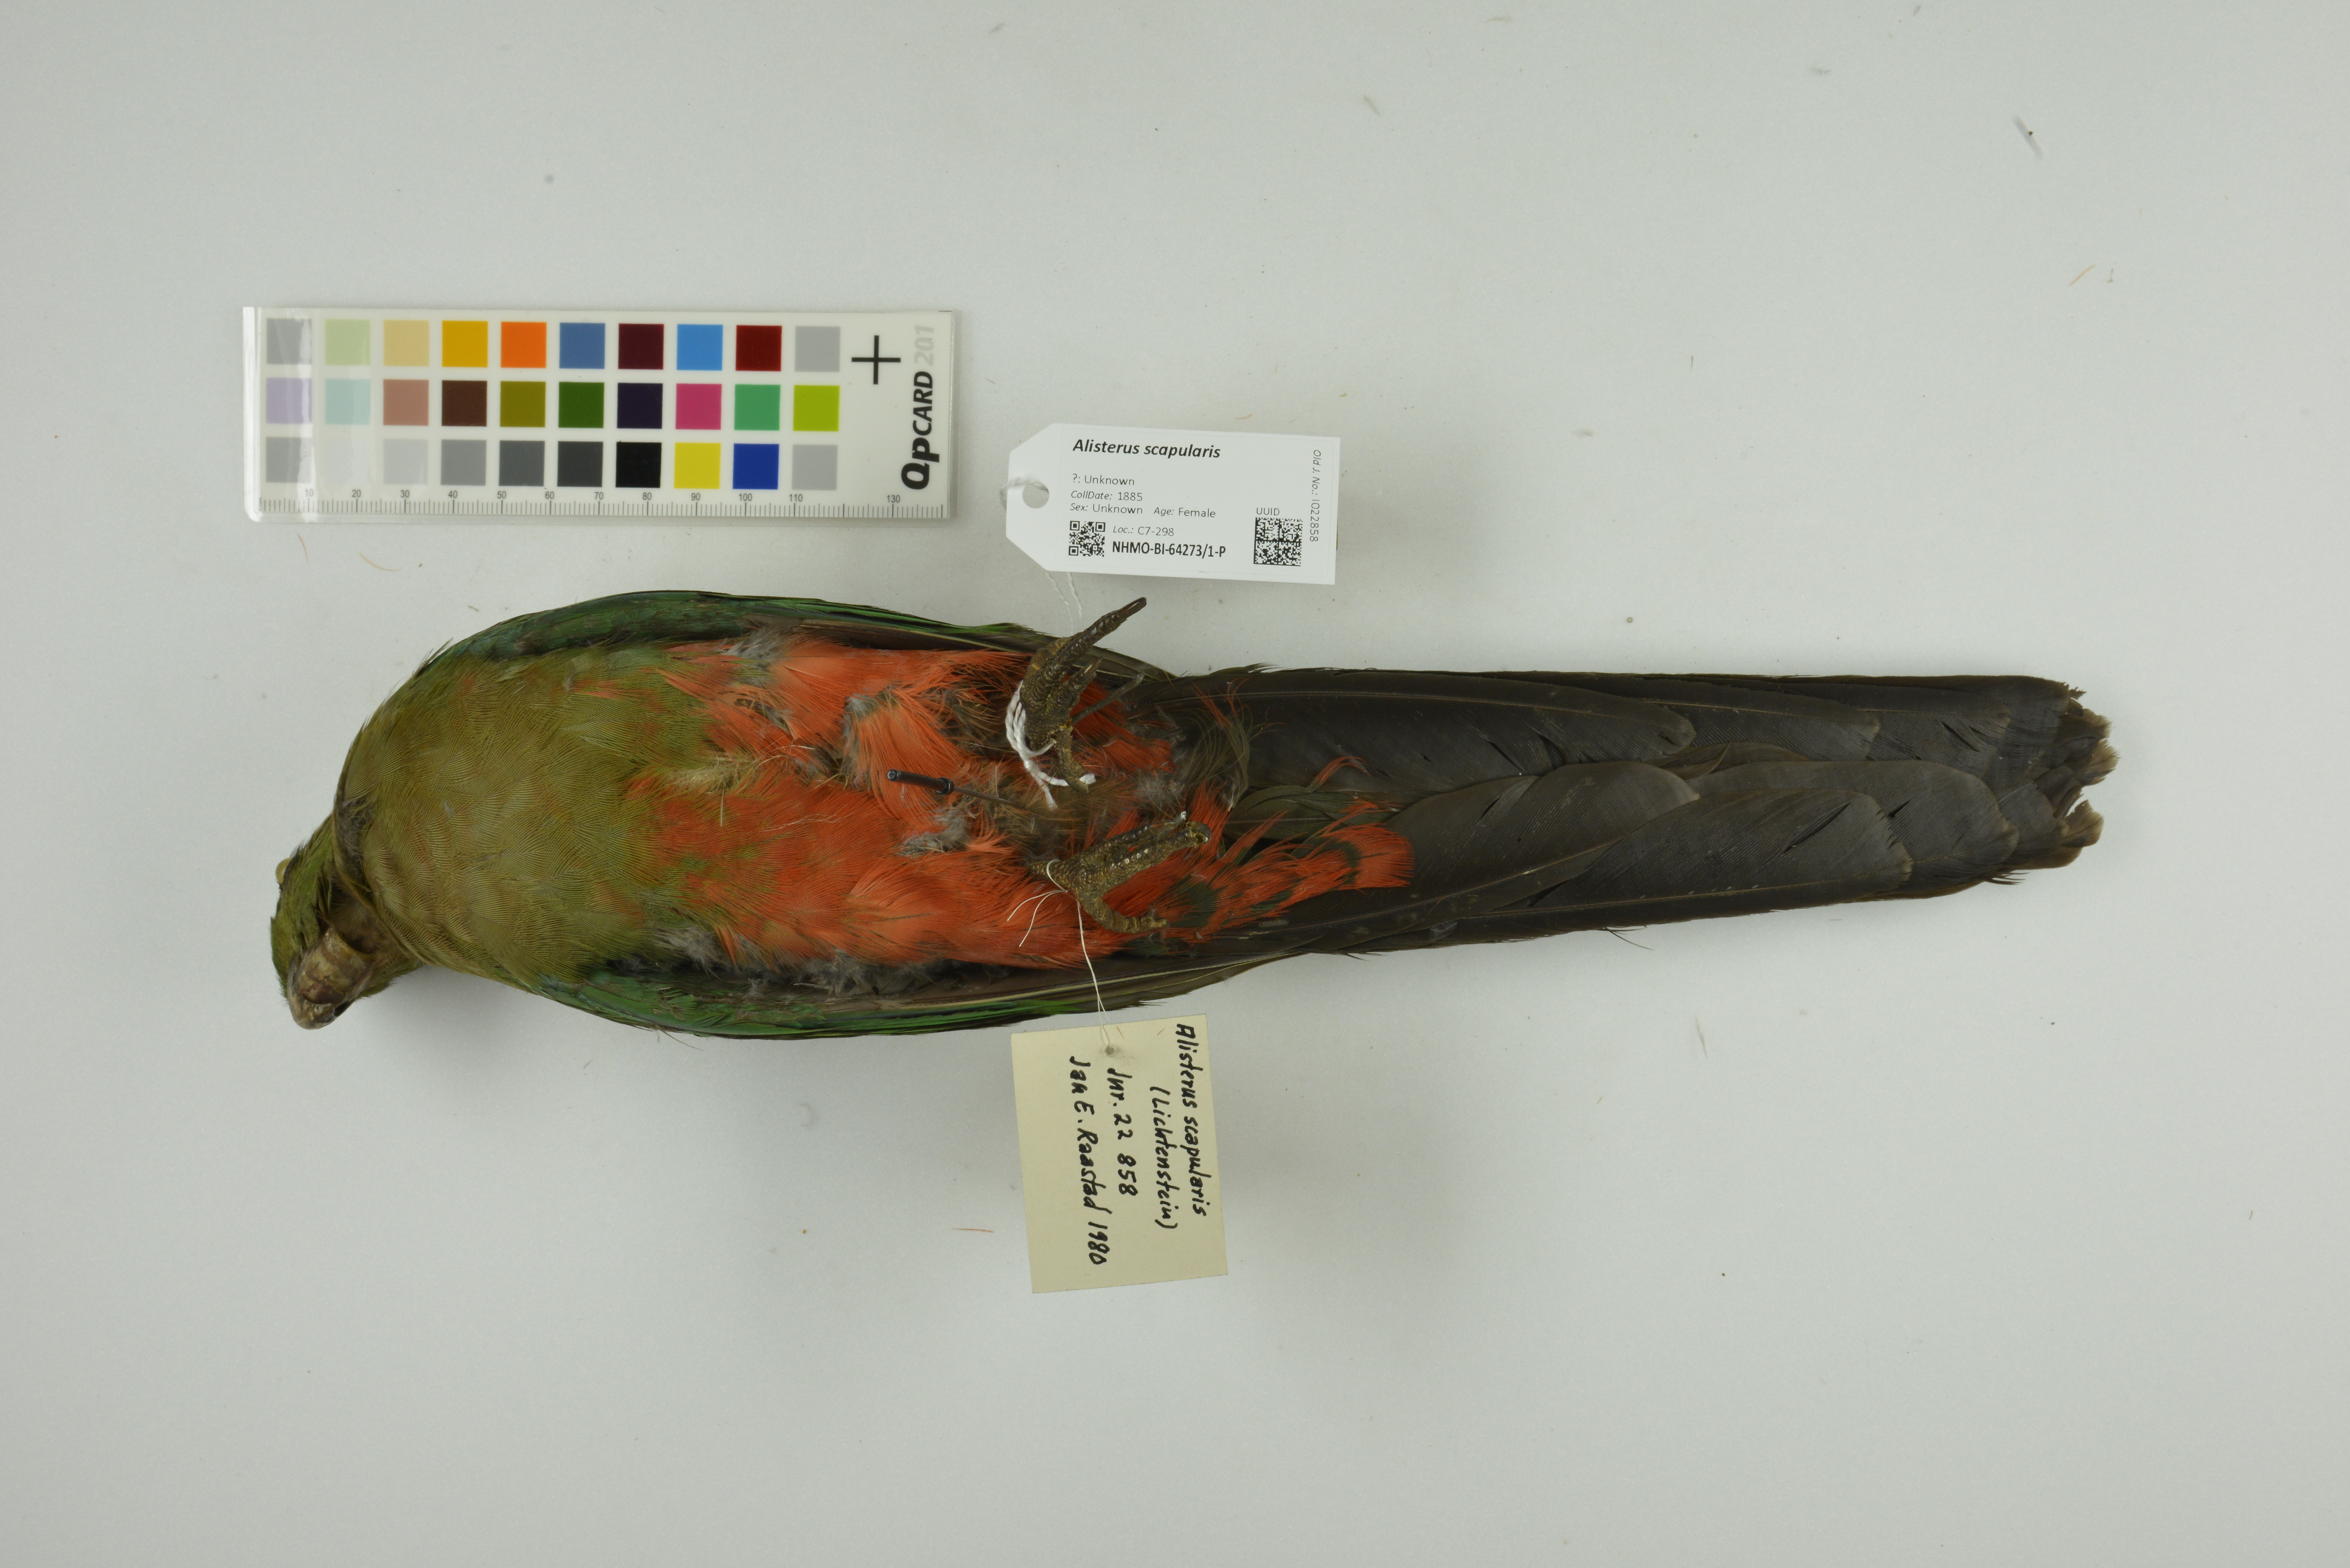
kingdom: Animalia
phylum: Chordata
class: Aves
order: Psittaciformes
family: Psittacidae
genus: Alisterus
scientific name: Alisterus scapularis
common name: Australian king parrot
